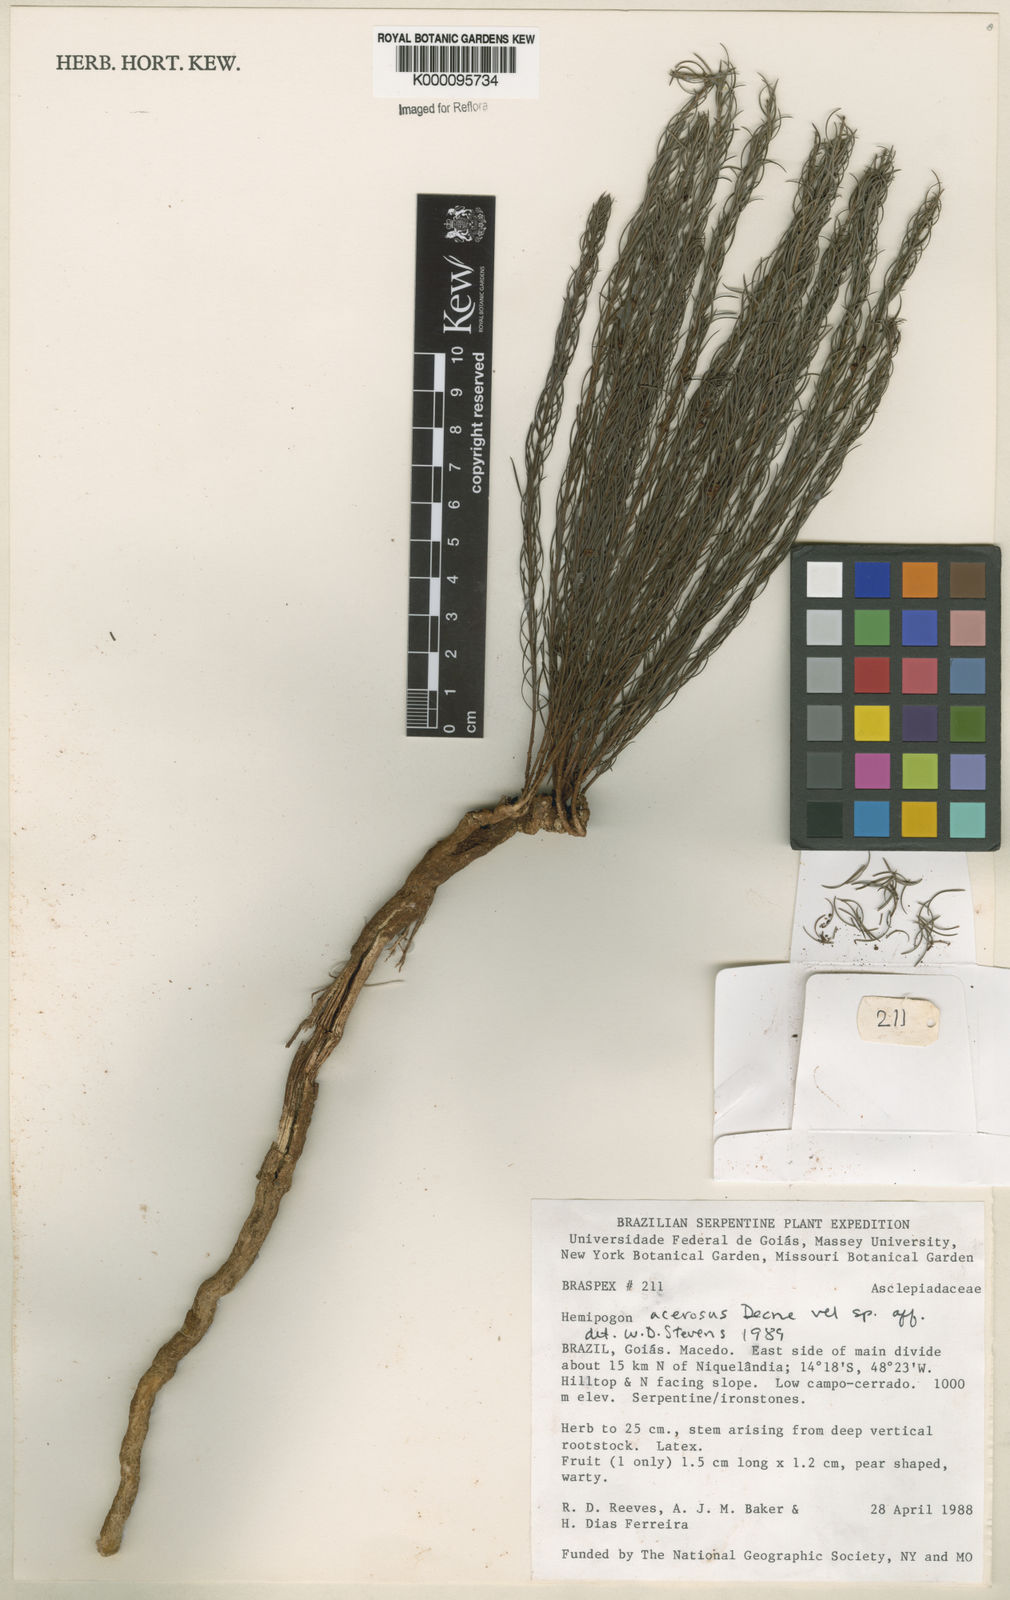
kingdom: Plantae
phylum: Tracheophyta
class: Magnoliopsida
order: Gentianales
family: Apocynaceae
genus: Hemipogon
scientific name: Hemipogon acerosus
